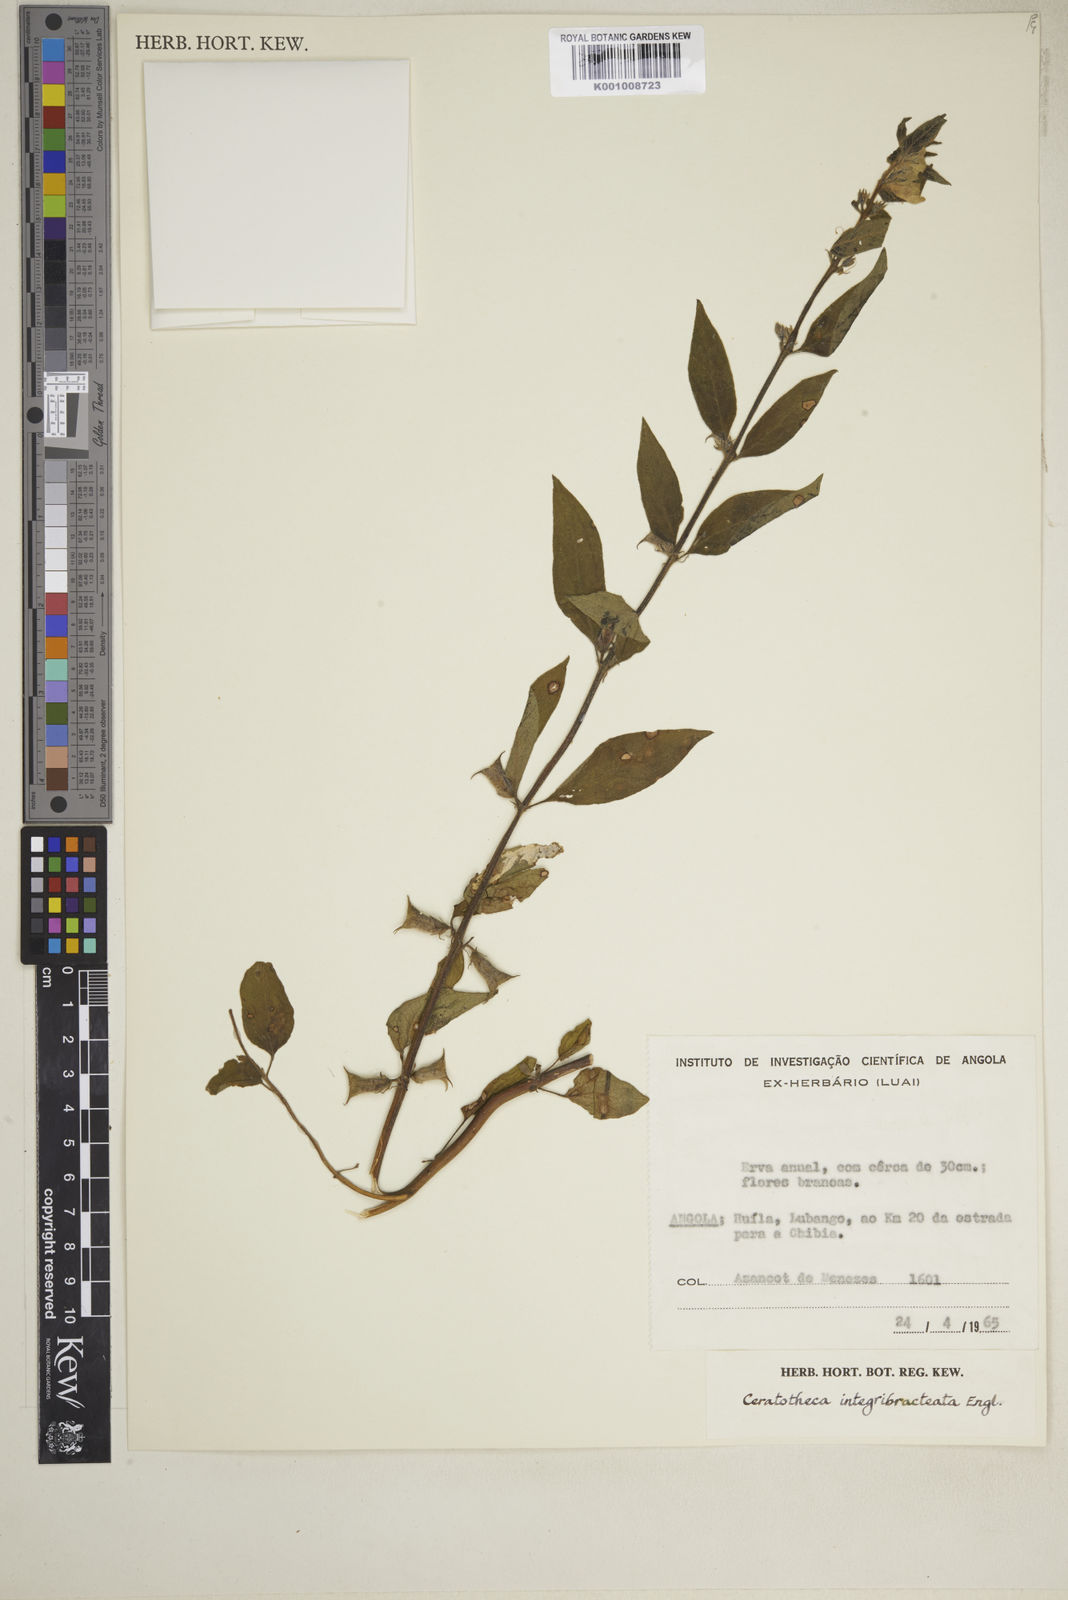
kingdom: Plantae
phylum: Tracheophyta
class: Magnoliopsida
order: Lamiales
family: Pedaliaceae
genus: Sesamum
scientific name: Sesamum integribracteatum
